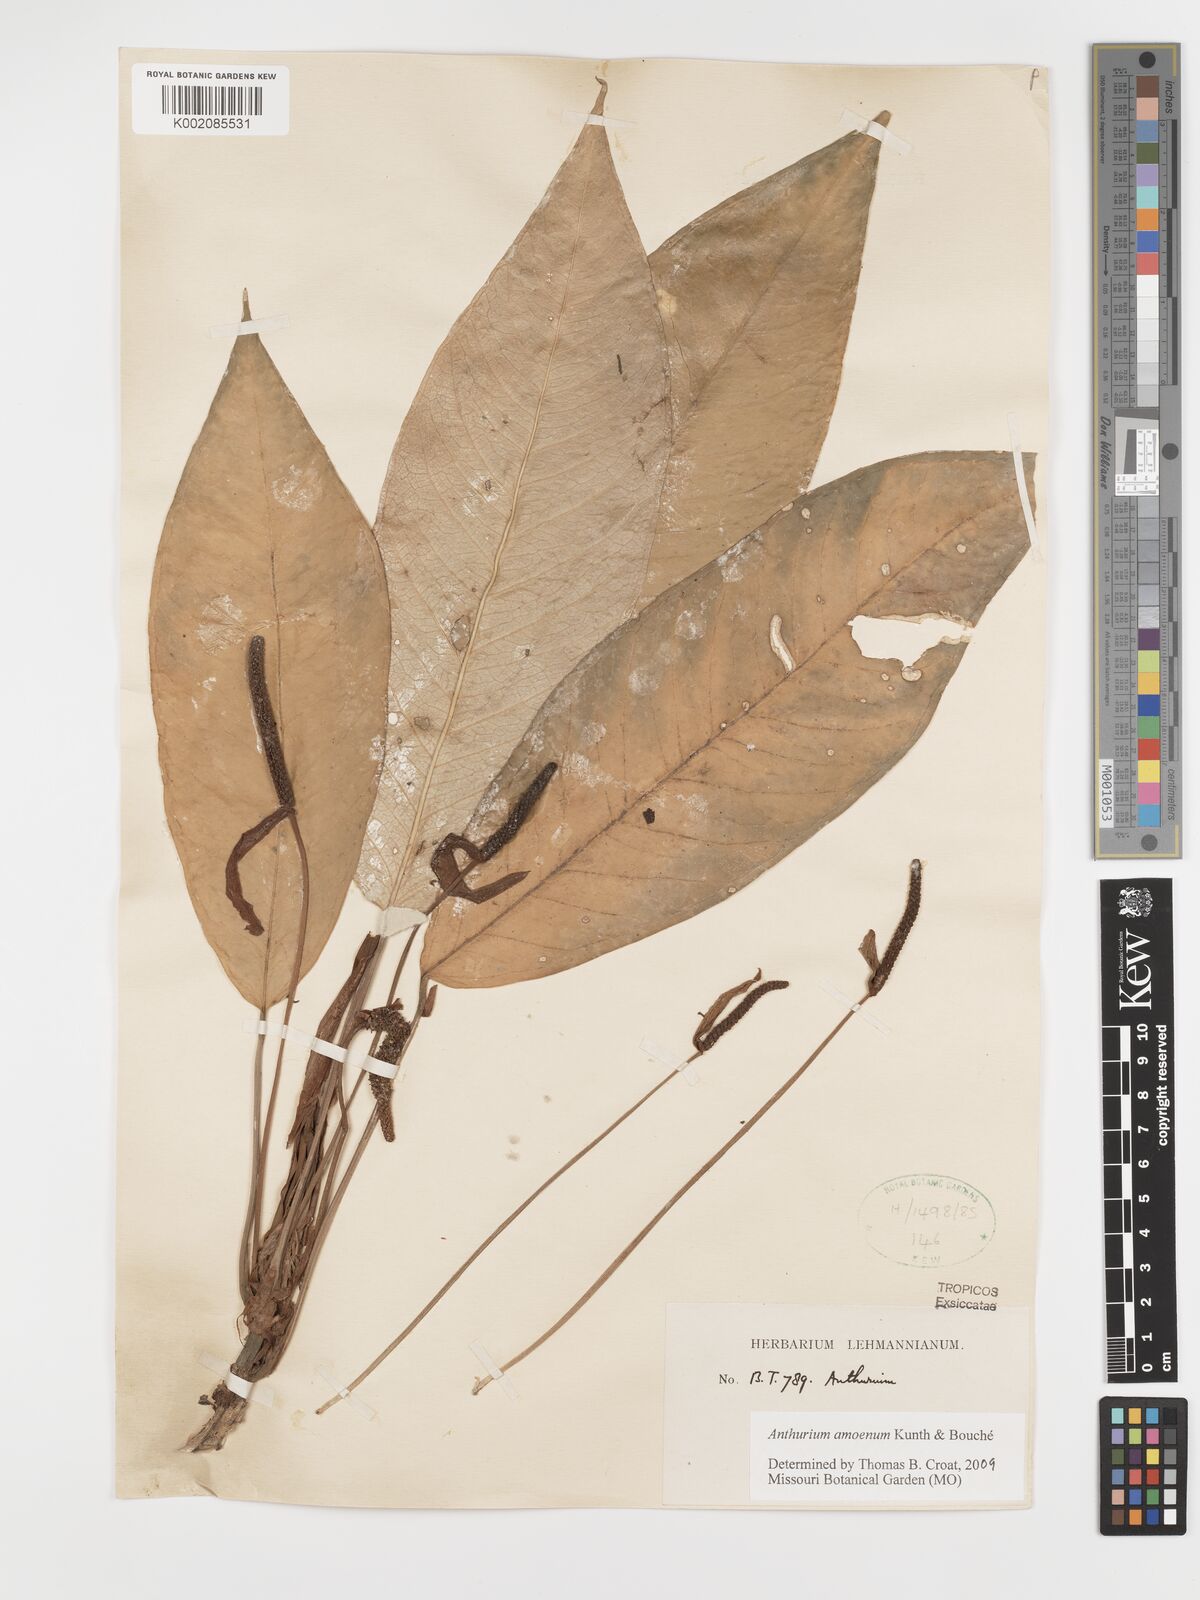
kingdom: Plantae
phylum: Tracheophyta
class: Liliopsida
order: Alismatales
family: Araceae
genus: Anthurium
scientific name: Anthurium amoenum
